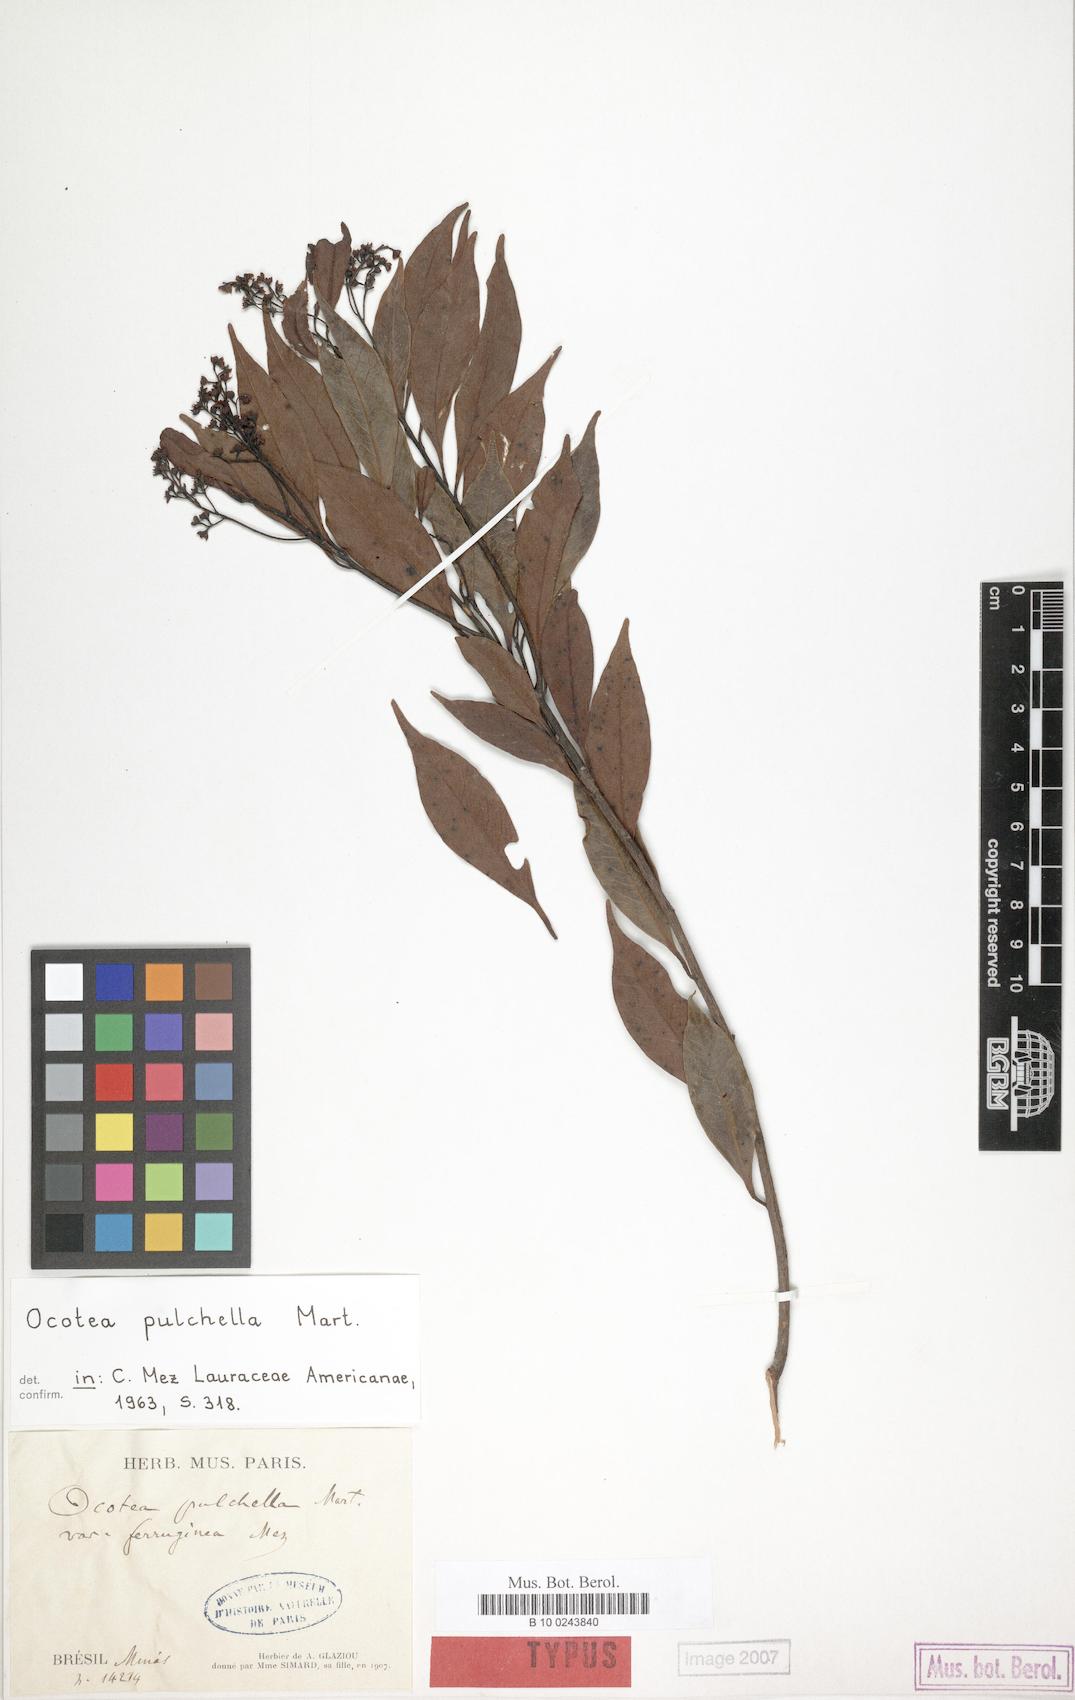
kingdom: Plantae
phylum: Tracheophyta
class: Magnoliopsida
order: Laurales
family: Lauraceae
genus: Mespilodaphne
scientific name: Mespilodaphne pulchella
